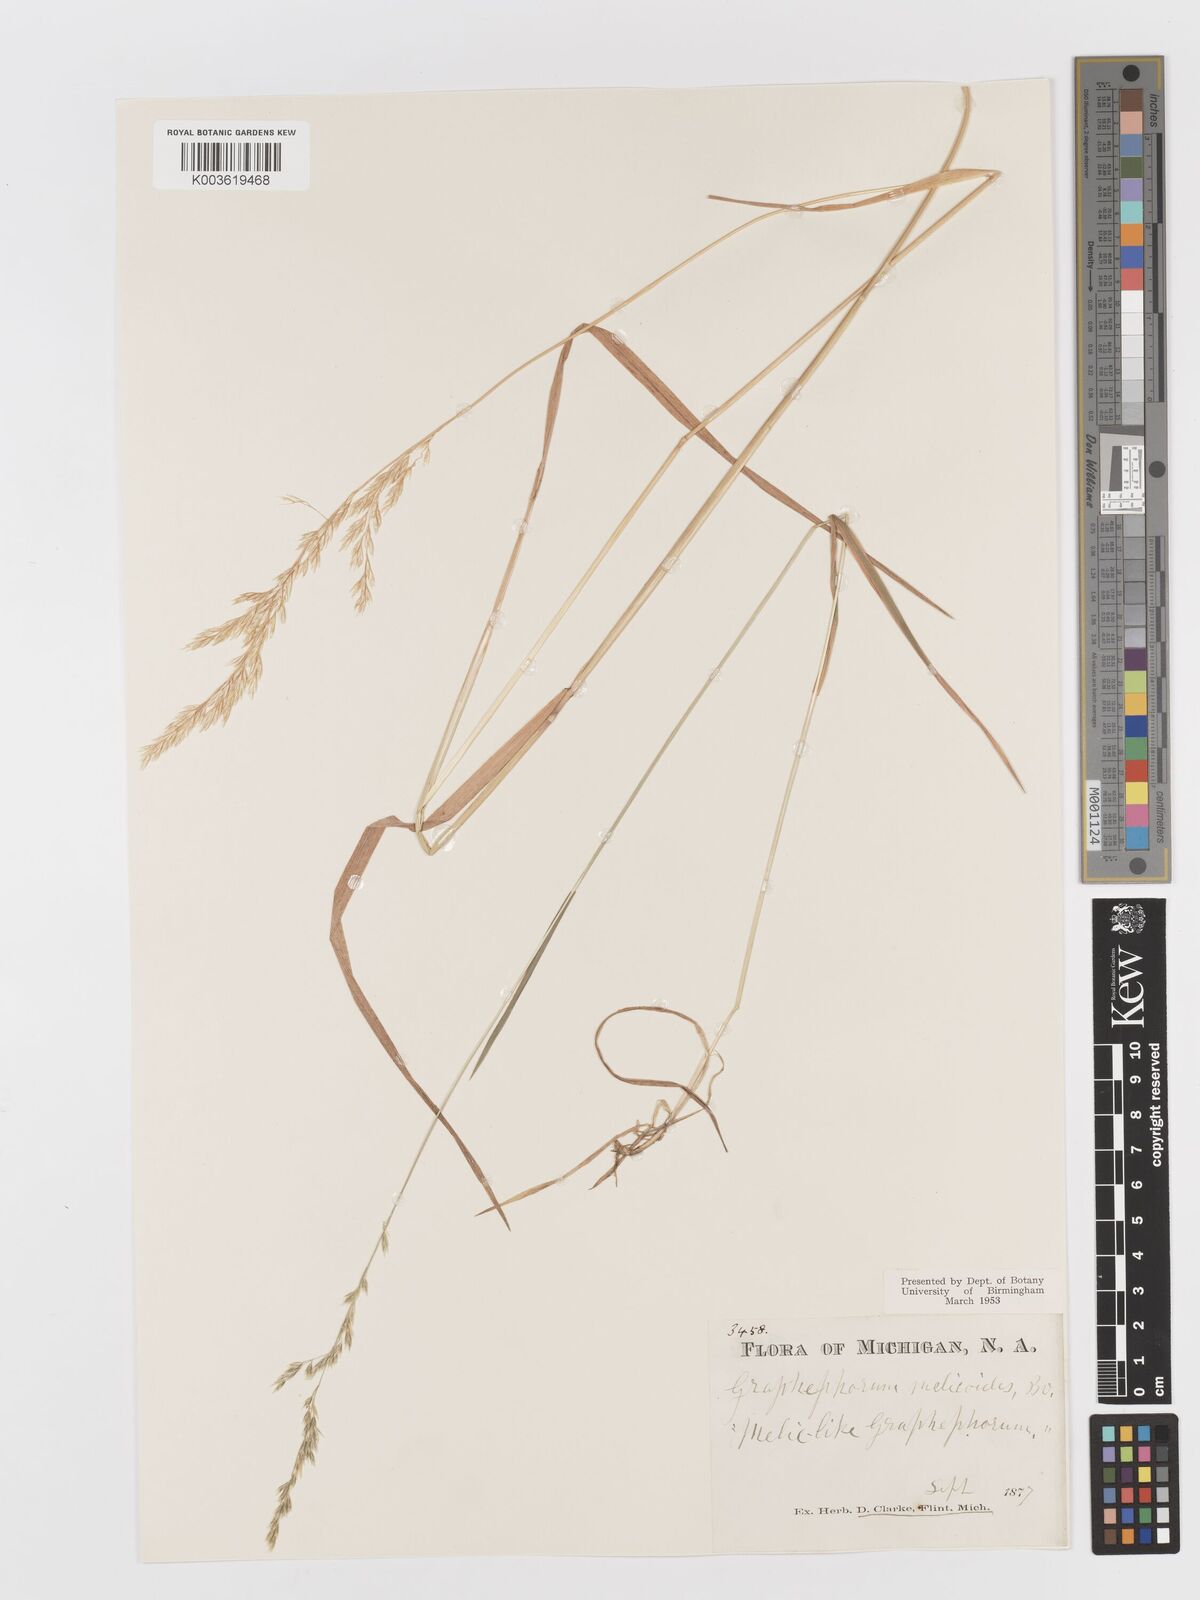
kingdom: Plantae
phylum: Tracheophyta
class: Liliopsida
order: Poales
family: Poaceae
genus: Graphephorum
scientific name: Graphephorum melicoides
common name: False melic
